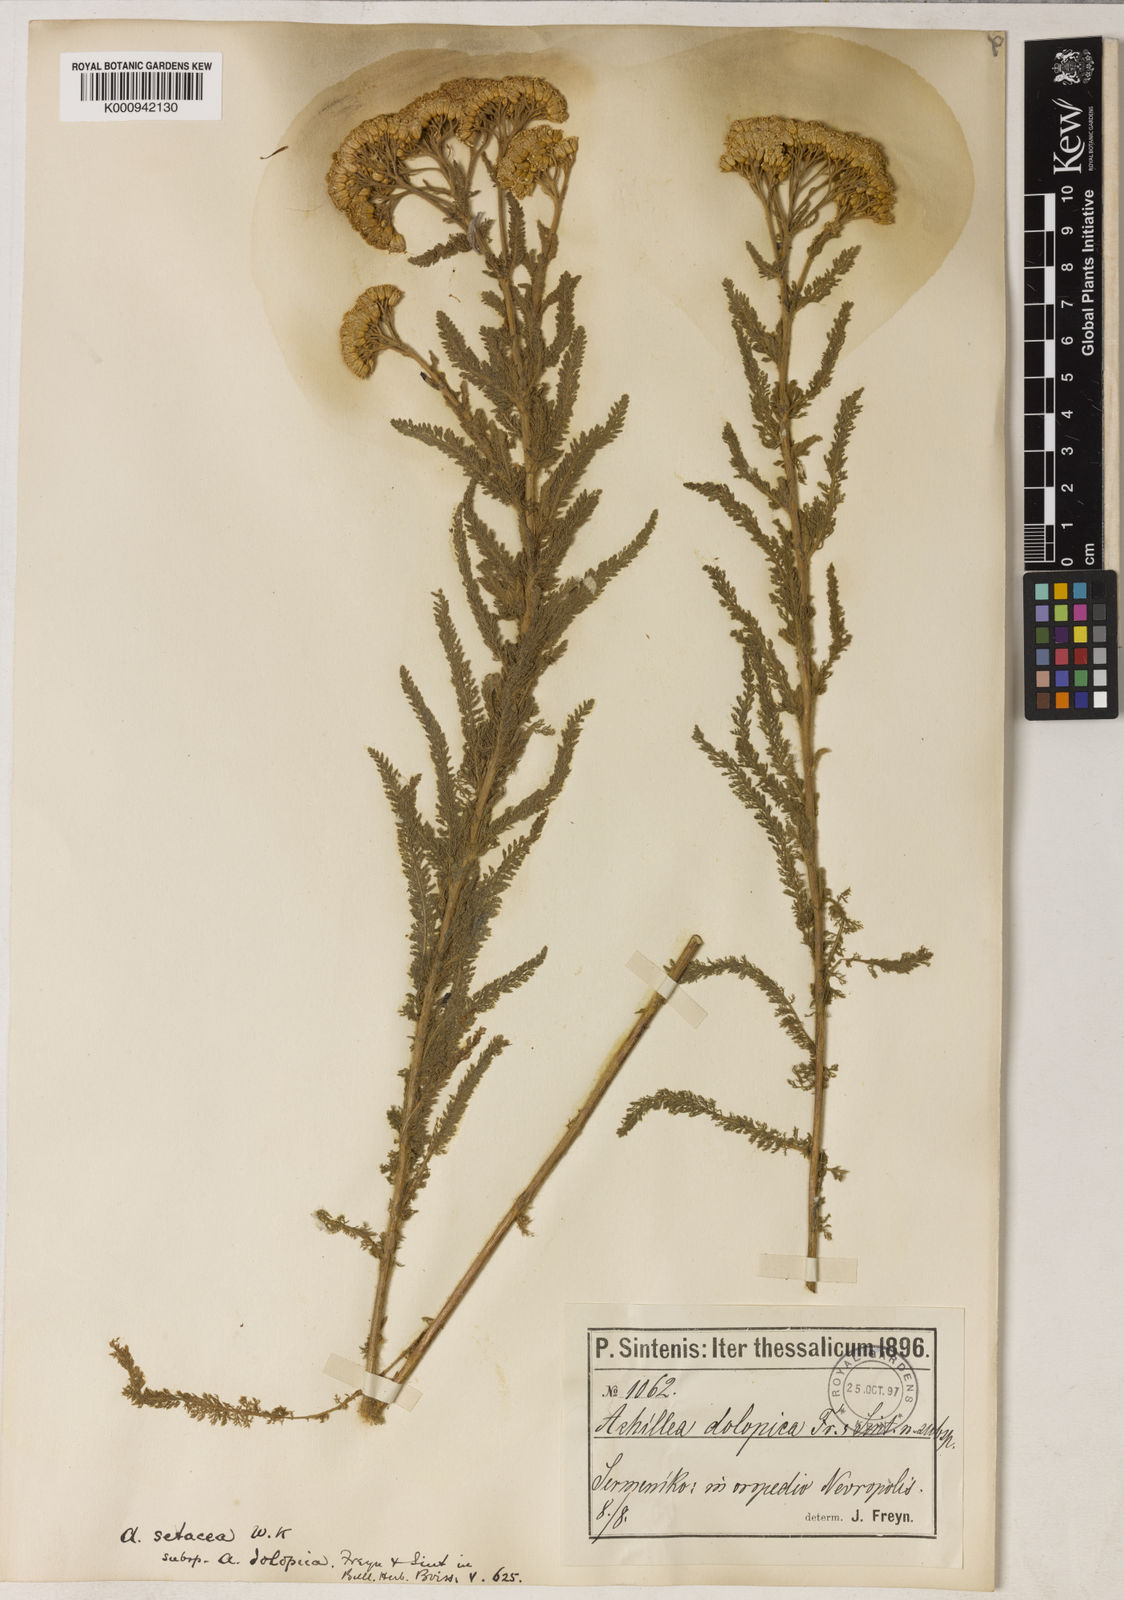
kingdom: Plantae
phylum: Tracheophyta
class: Magnoliopsida
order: Asterales
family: Asteraceae
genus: Achillea
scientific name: Achillea
